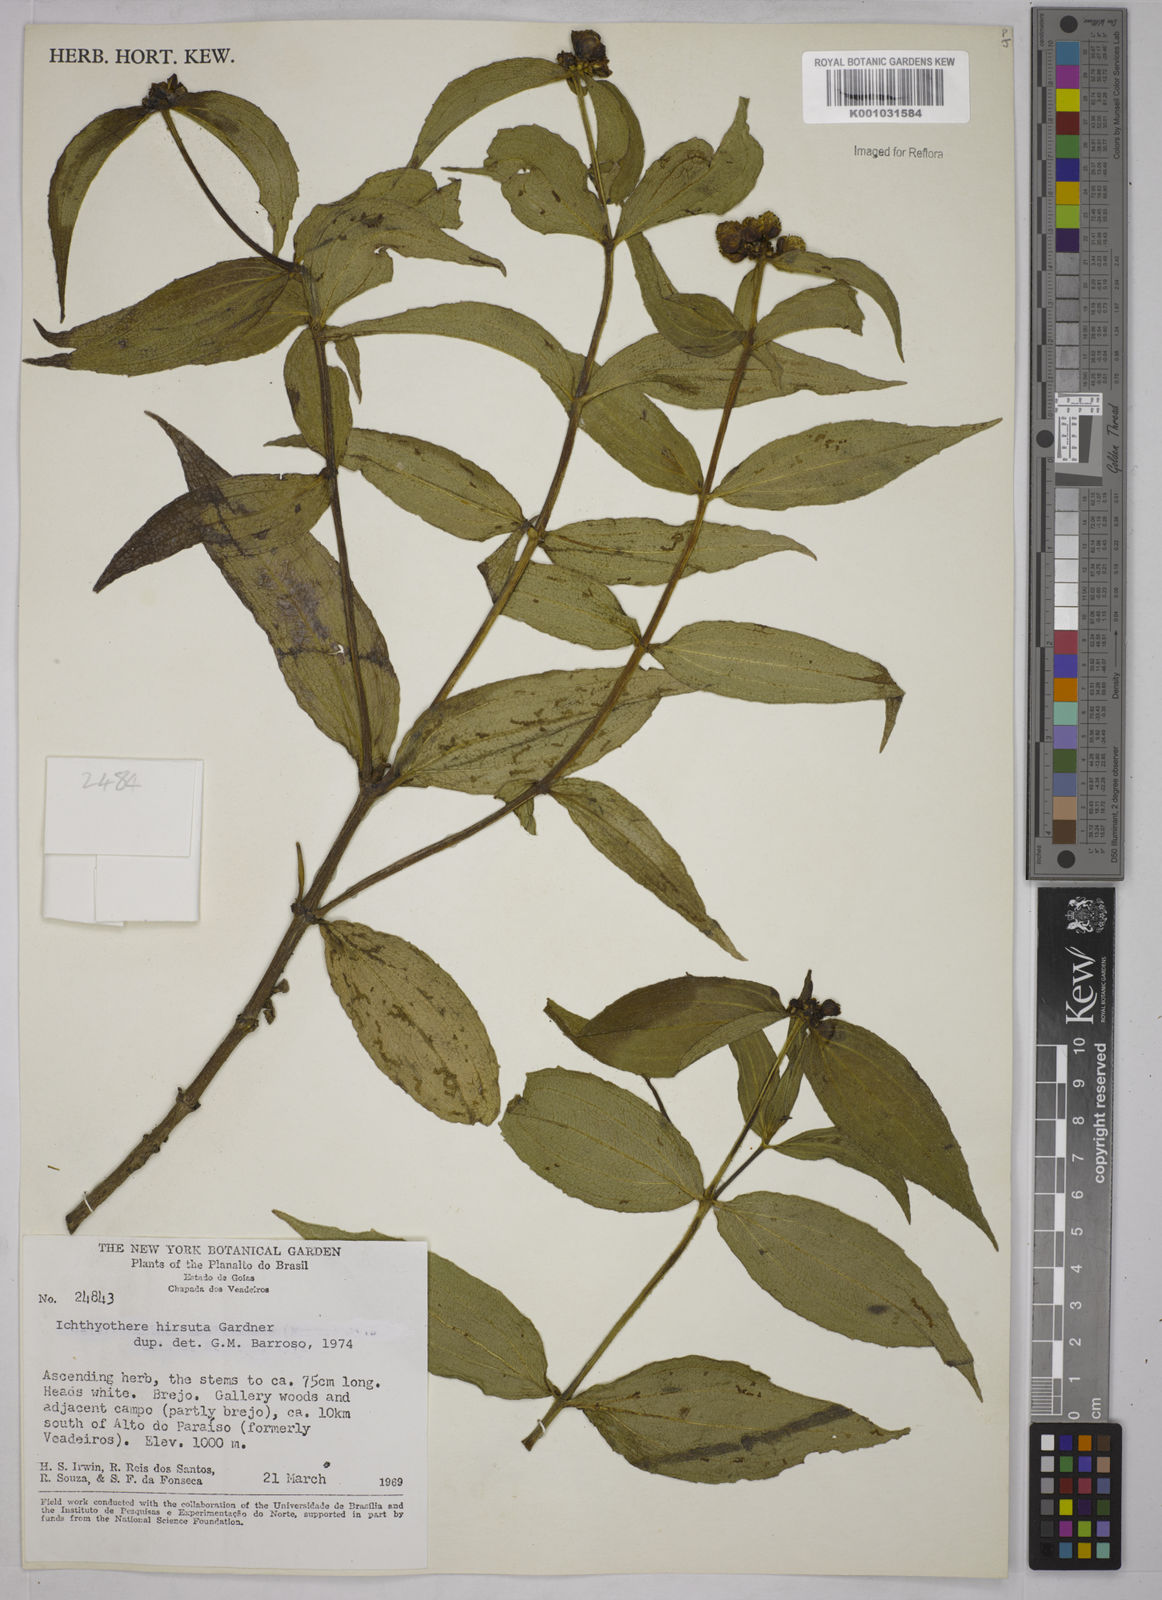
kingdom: Plantae
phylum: Tracheophyta
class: Magnoliopsida
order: Asterales
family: Asteraceae
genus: Ichthyothere
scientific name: Ichthyothere hirsuta
